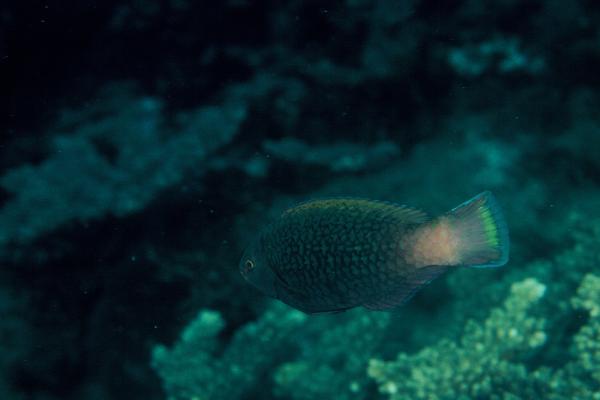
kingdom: Animalia
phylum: Chordata
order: Perciformes
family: Scaridae
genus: Scarus
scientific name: Scarus niger
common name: Dusky parrotfish
